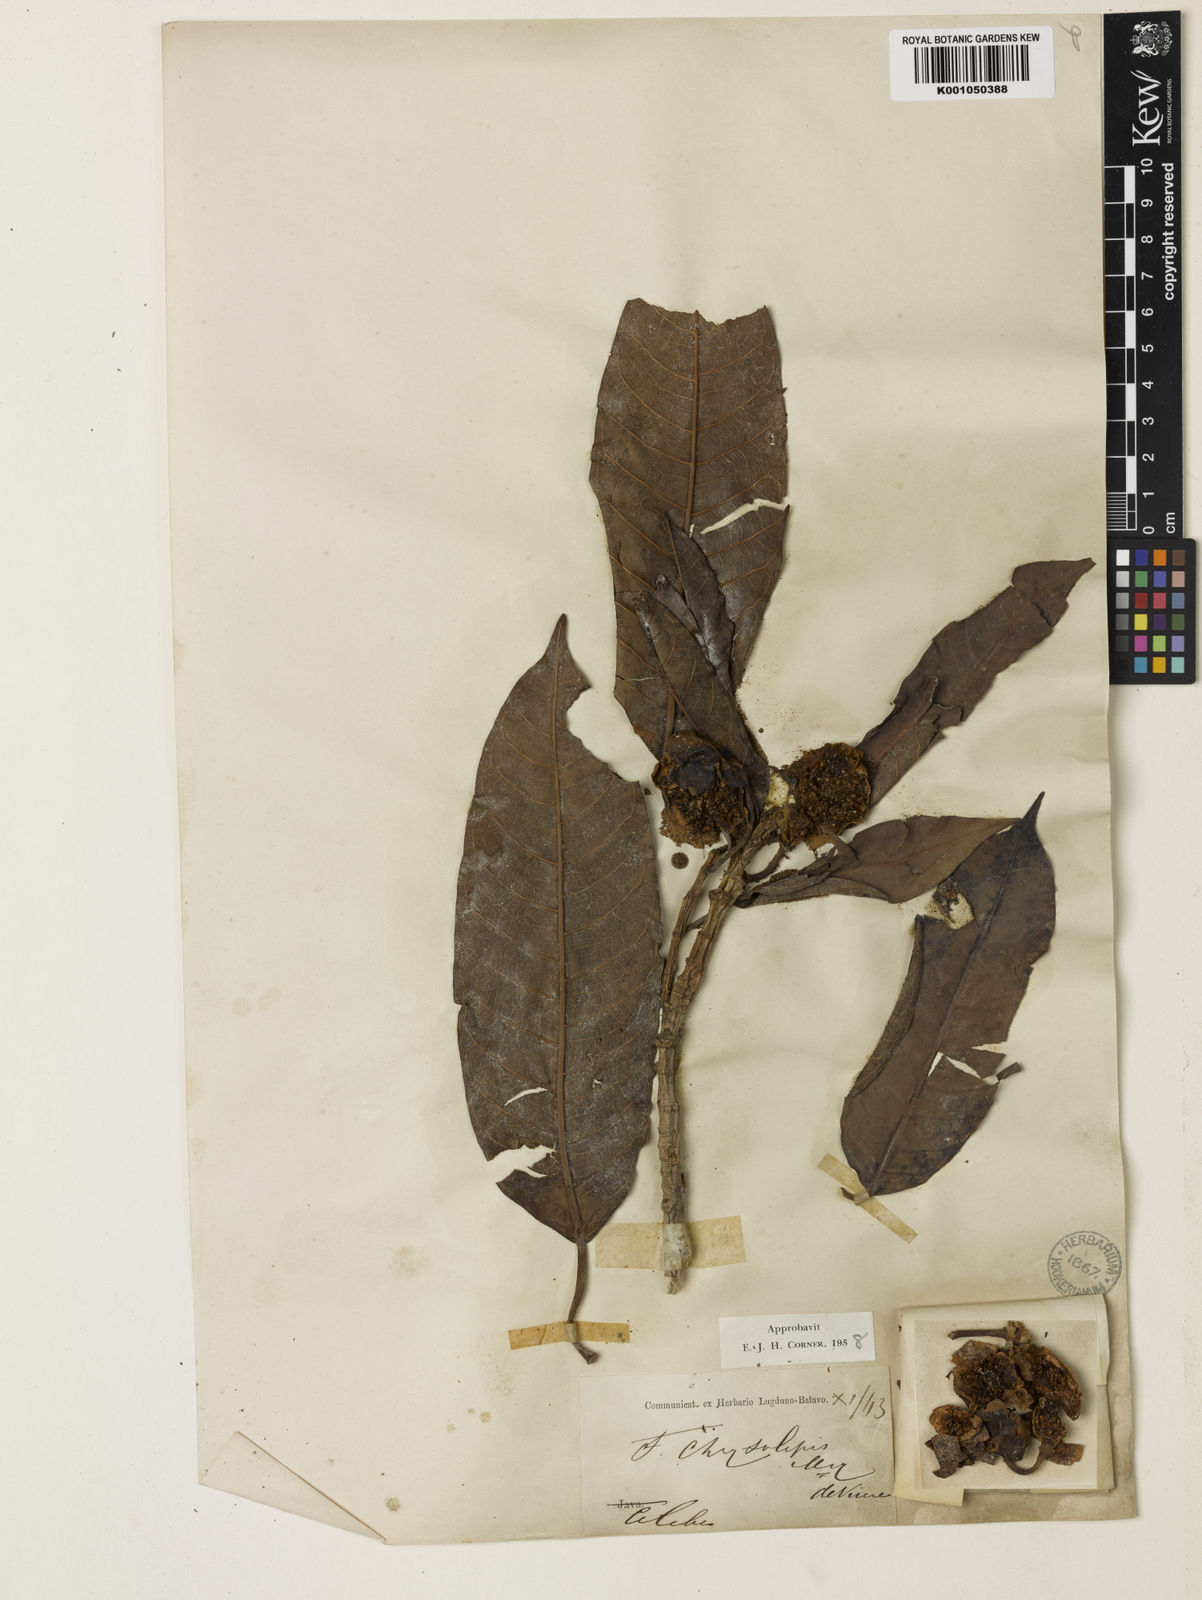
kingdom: Plantae
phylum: Tracheophyta
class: Magnoliopsida
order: Rosales
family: Moraceae
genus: Ficus
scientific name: Ficus chrysolepis
